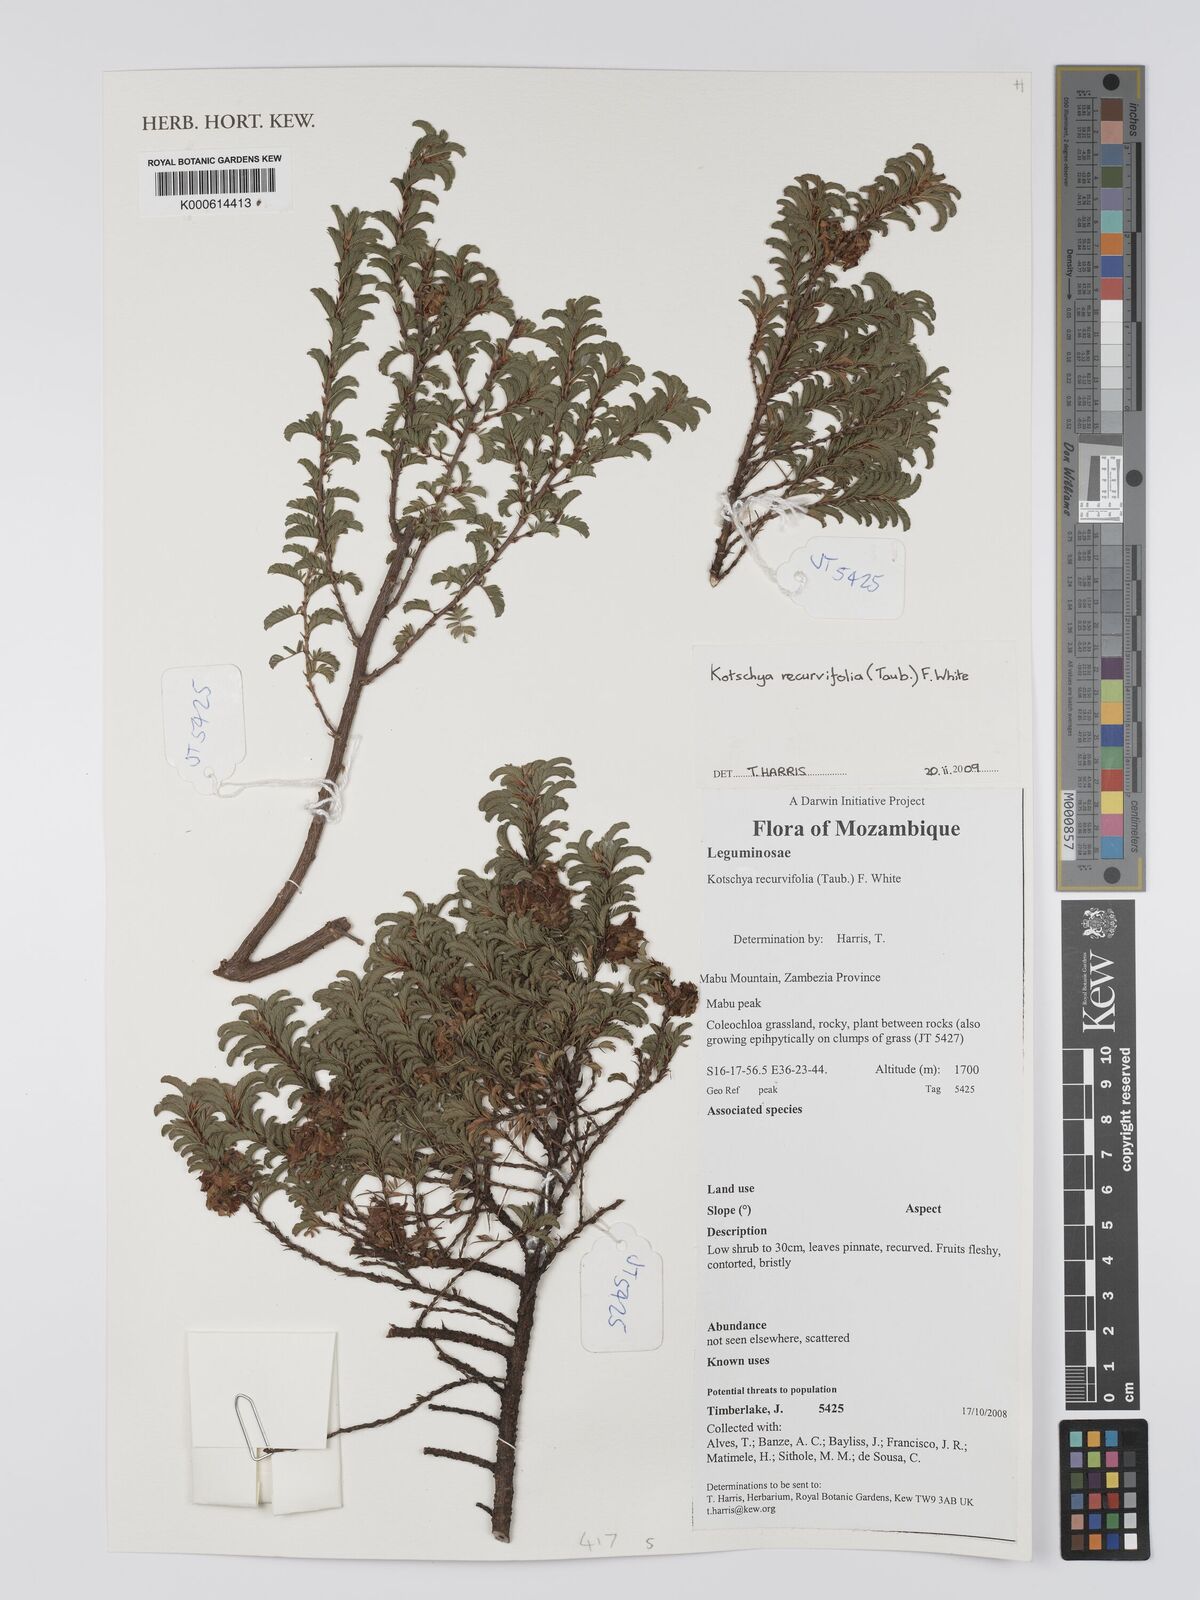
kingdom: Plantae
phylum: Tracheophyta
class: Magnoliopsida
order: Fabales
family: Fabaceae
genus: Kotschya
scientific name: Kotschya recurvifolia
